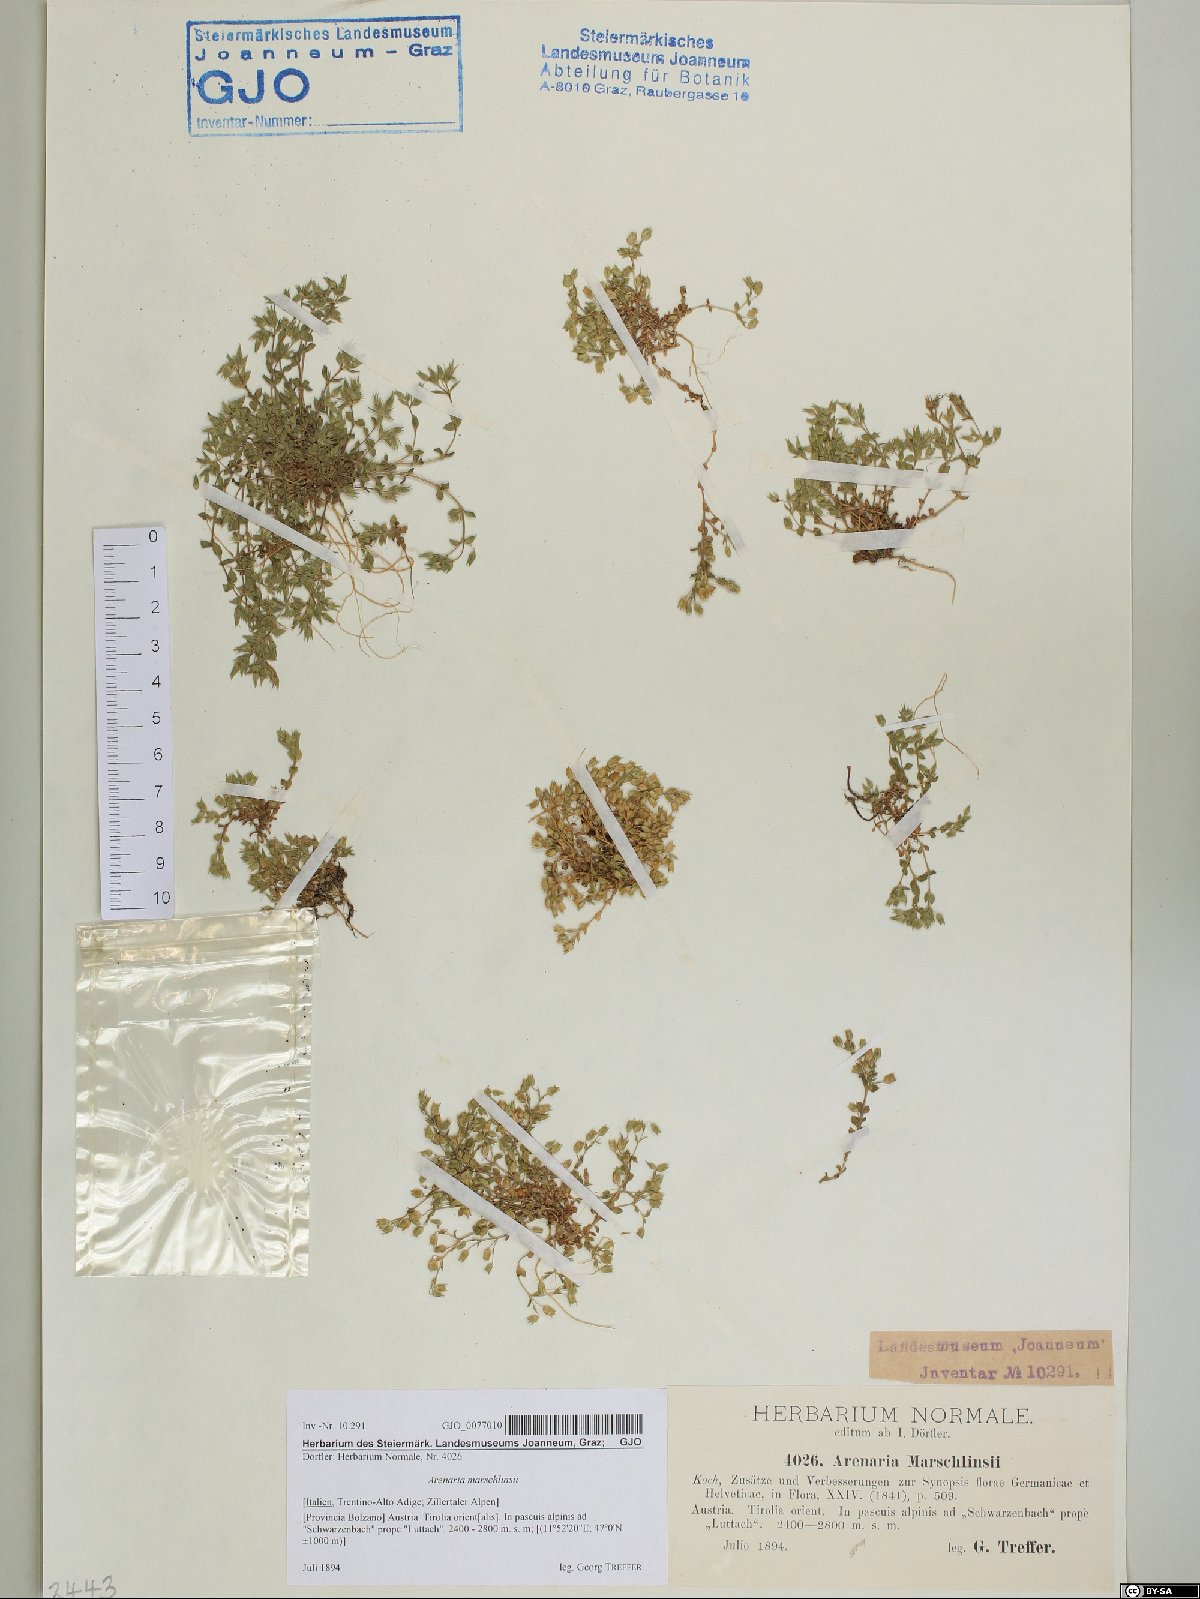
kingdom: Plantae
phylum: Tracheophyta
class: Magnoliopsida
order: Caryophyllales
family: Caryophyllaceae
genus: Arenaria
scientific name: Arenaria marschlinsii
